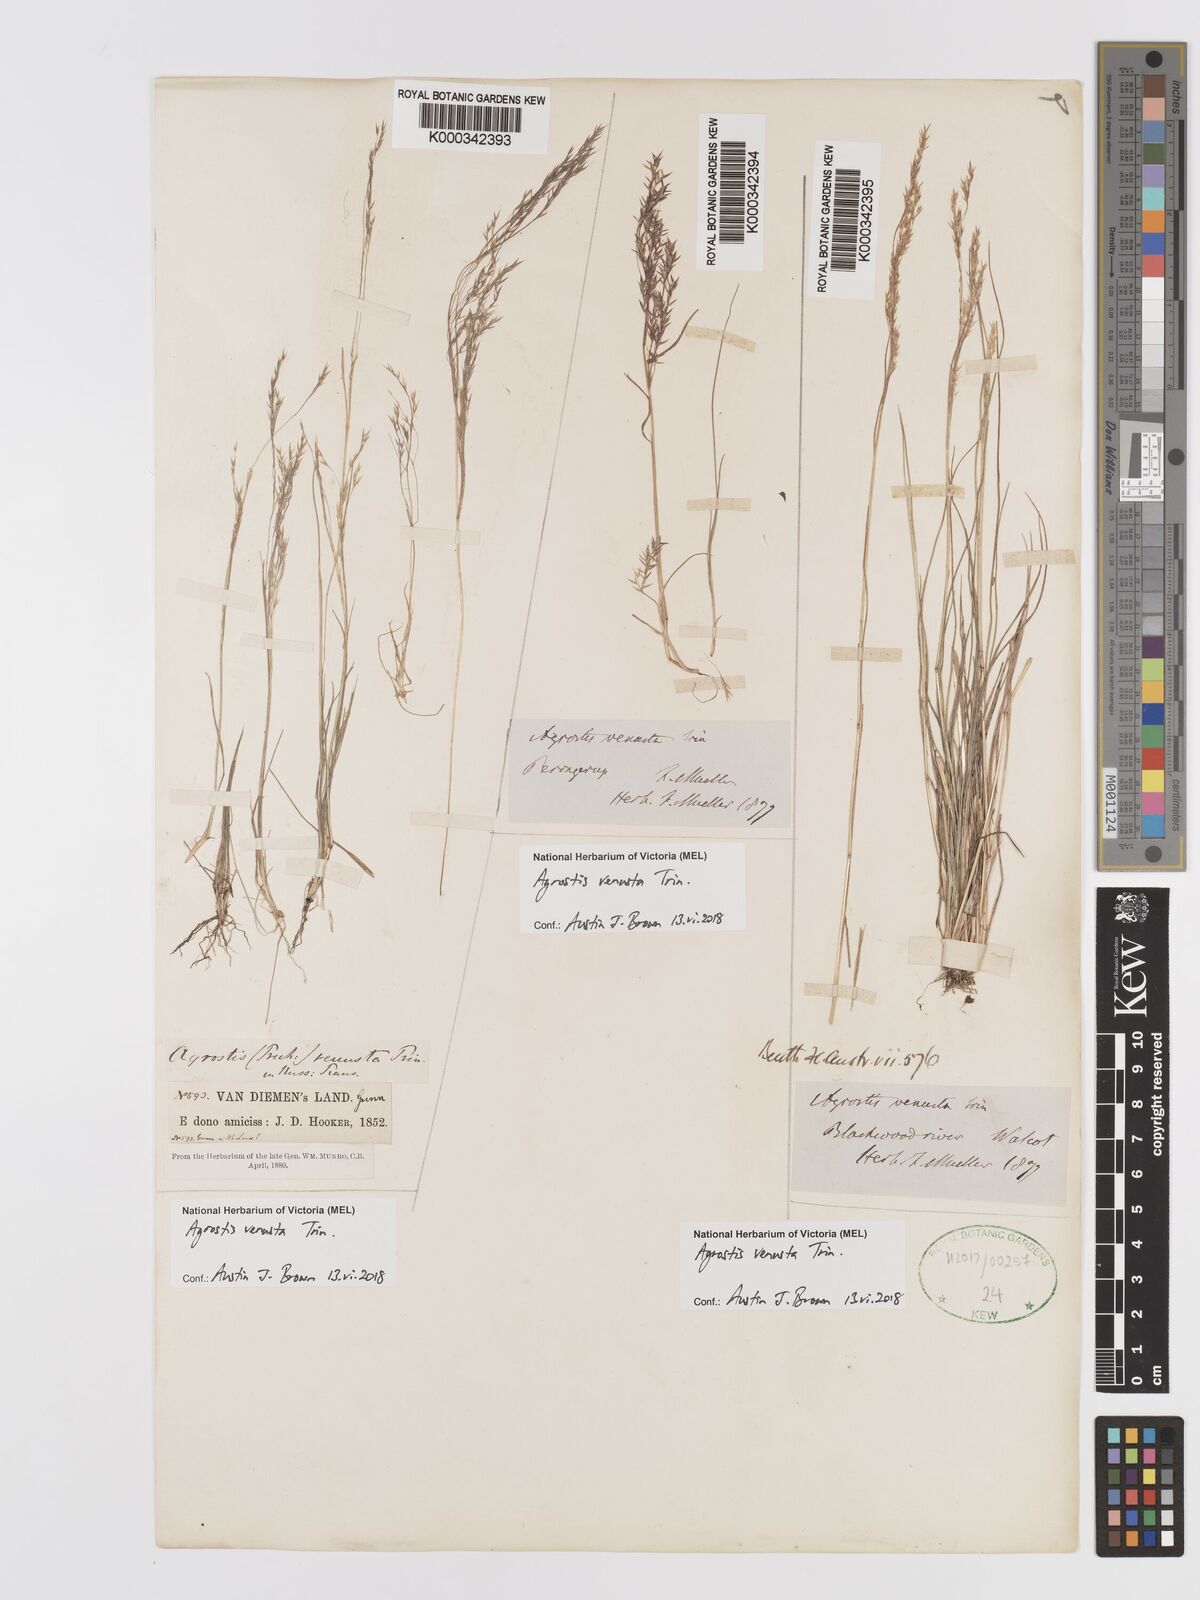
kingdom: Plantae
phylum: Tracheophyta
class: Liliopsida
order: Poales
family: Poaceae
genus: Agrostis
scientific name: Agrostis venusta
